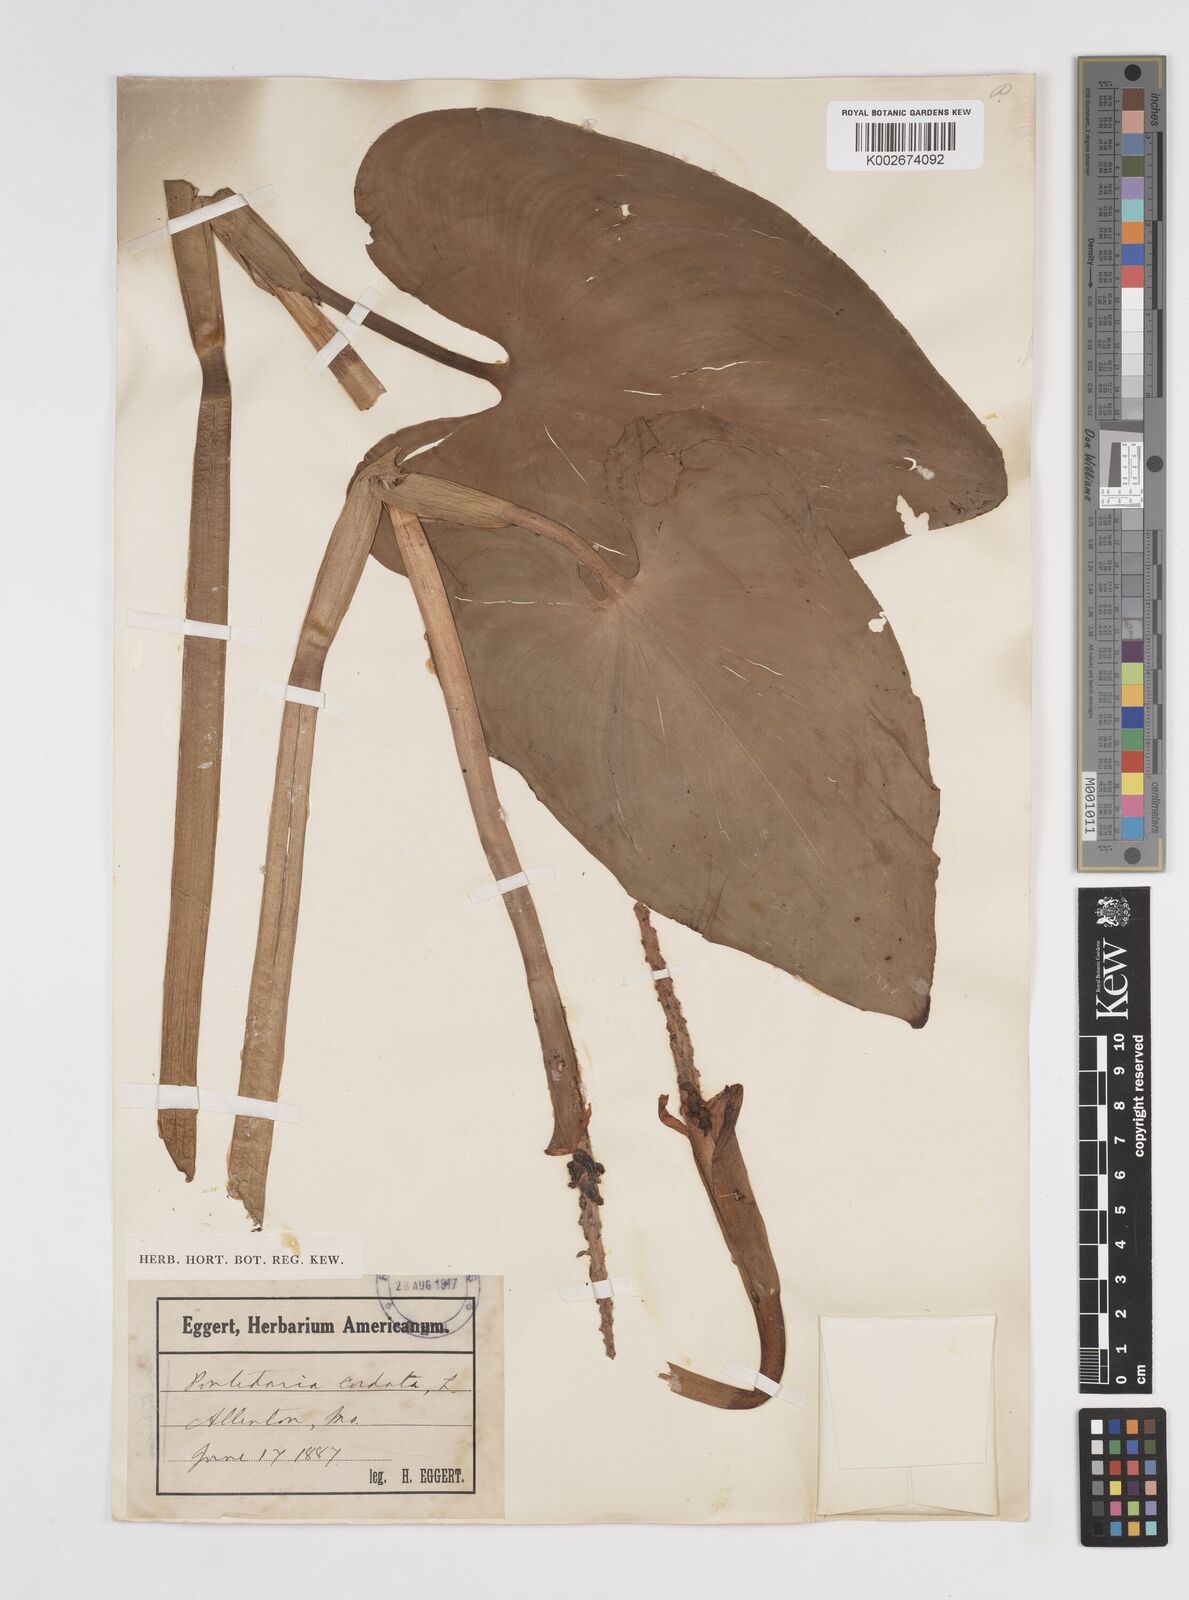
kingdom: Plantae
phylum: Tracheophyta
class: Liliopsida
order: Commelinales
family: Pontederiaceae
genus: Pontederia
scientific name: Pontederia cordata
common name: Pickerelweed
